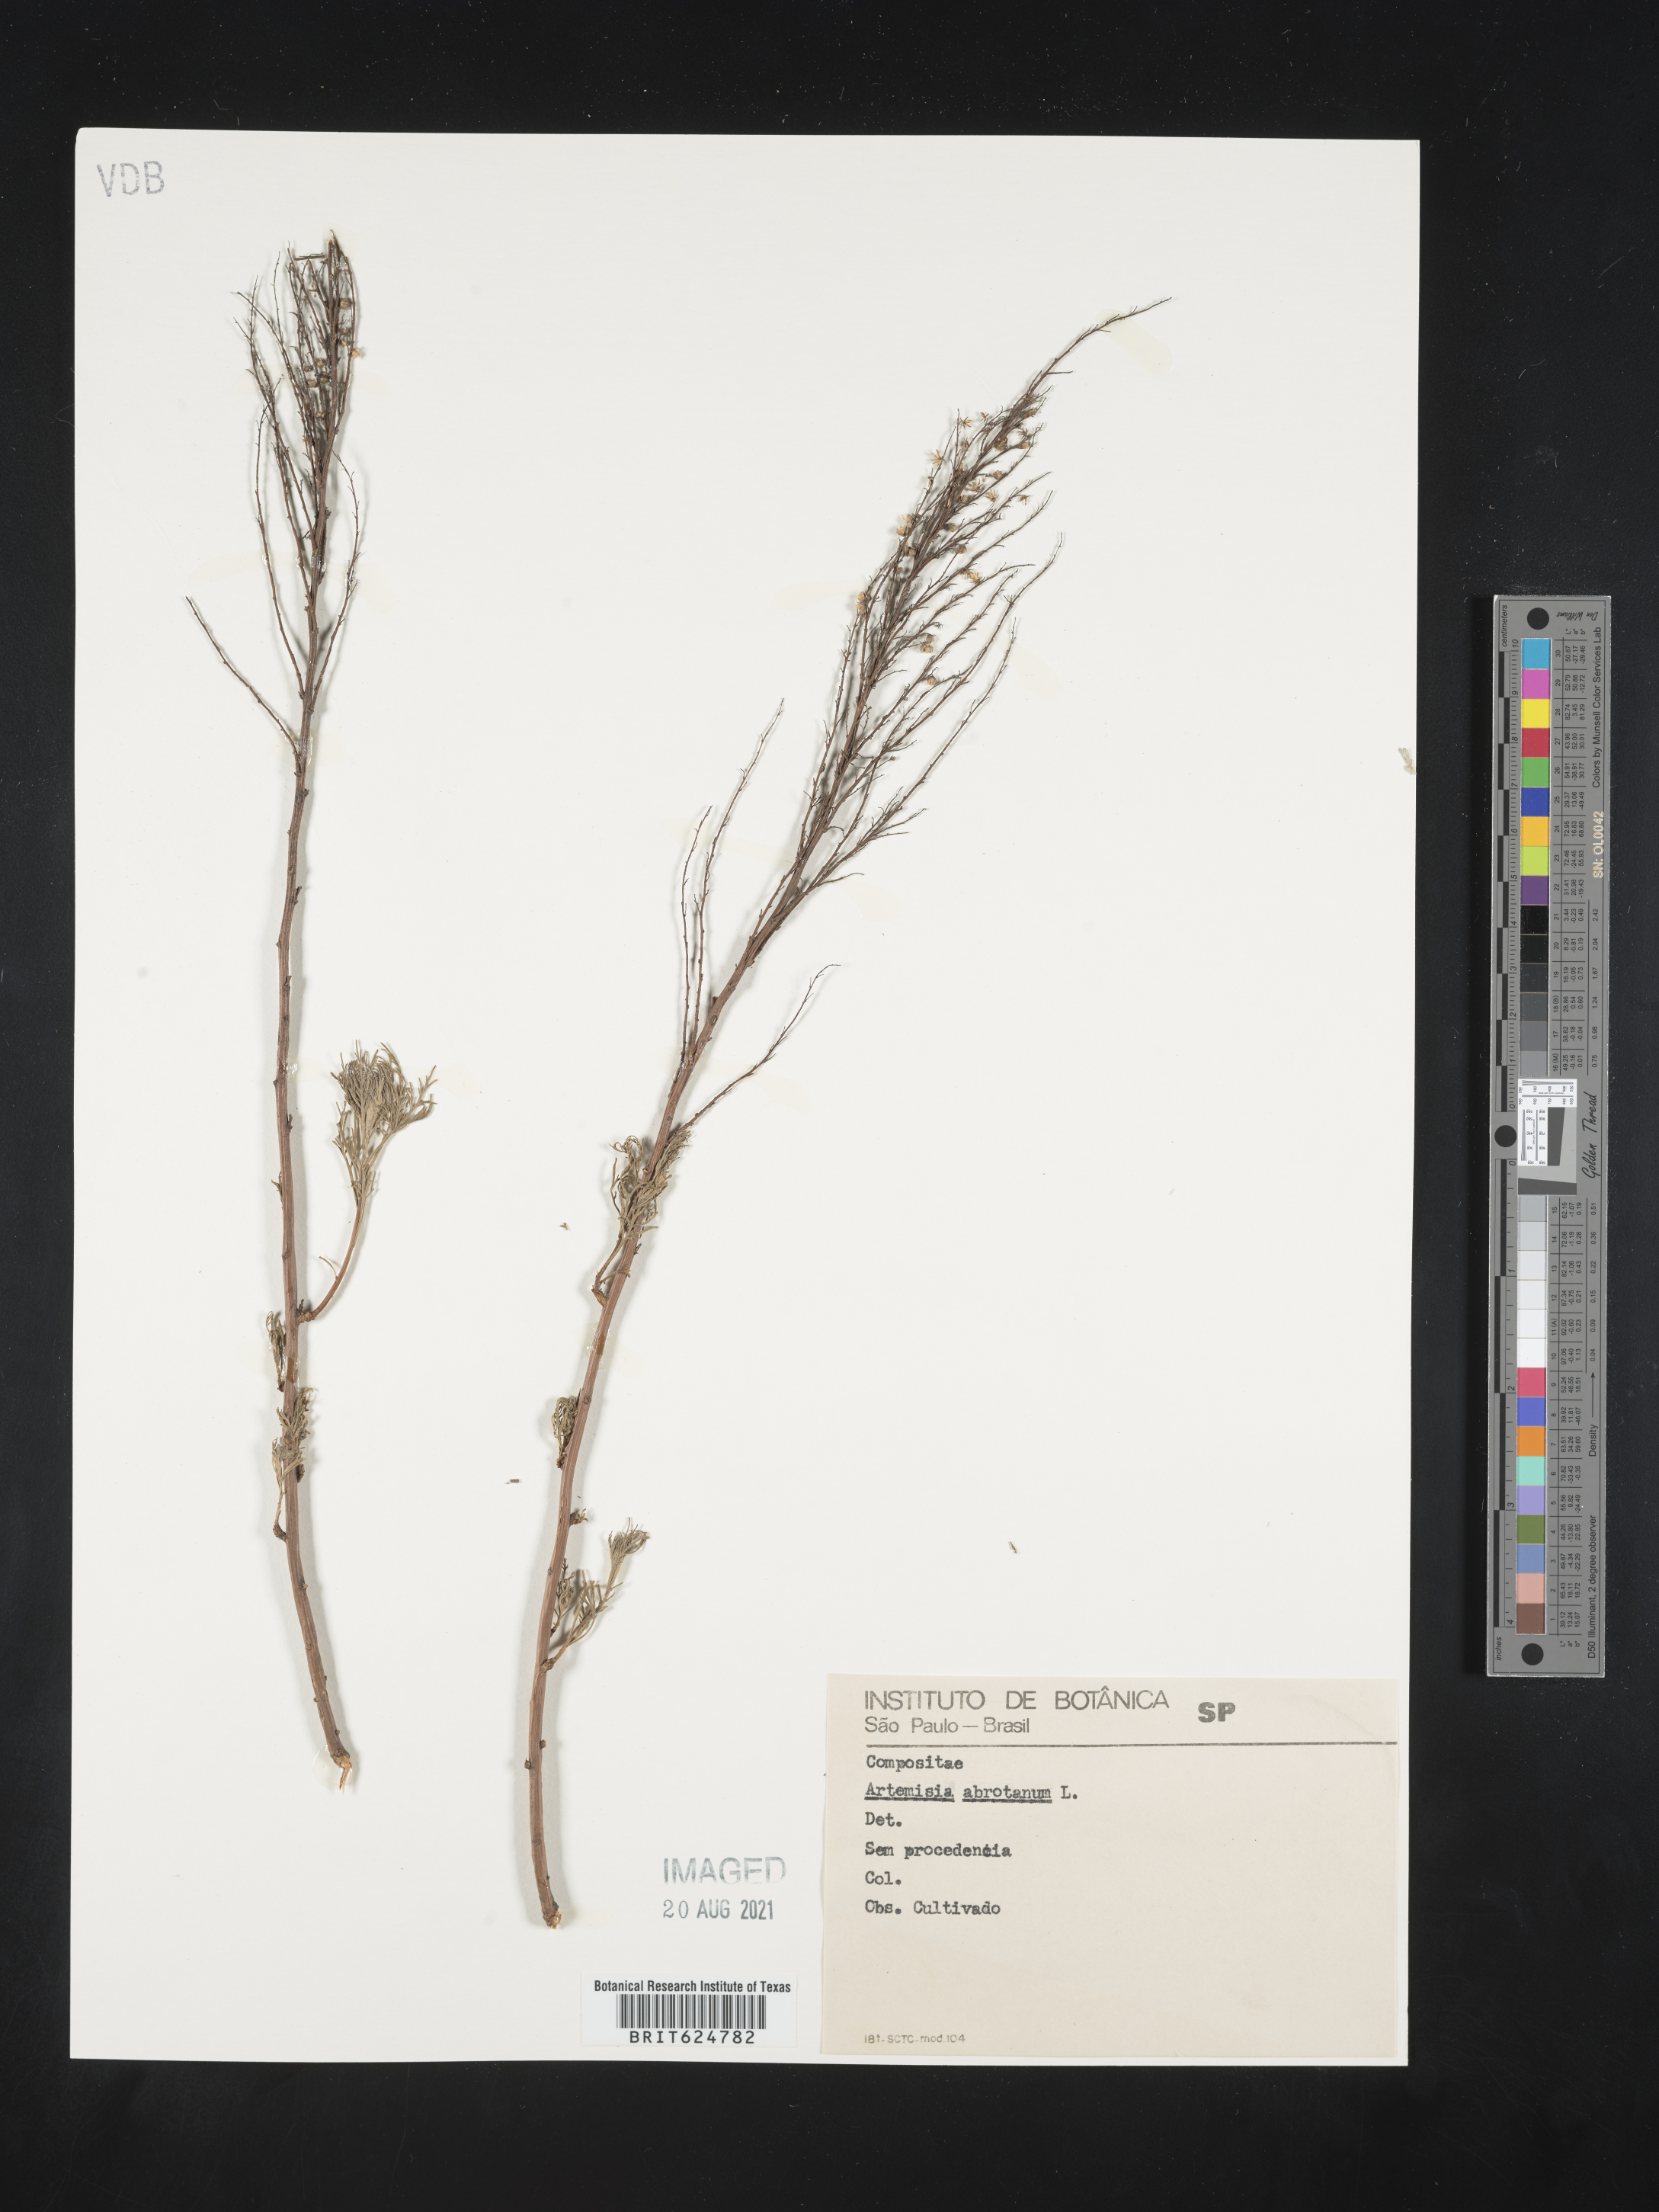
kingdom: Plantae
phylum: Tracheophyta
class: Magnoliopsida
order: Asterales
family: Asteraceae
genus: Artemisia
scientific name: Artemisia abrotanum
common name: Southernwood
